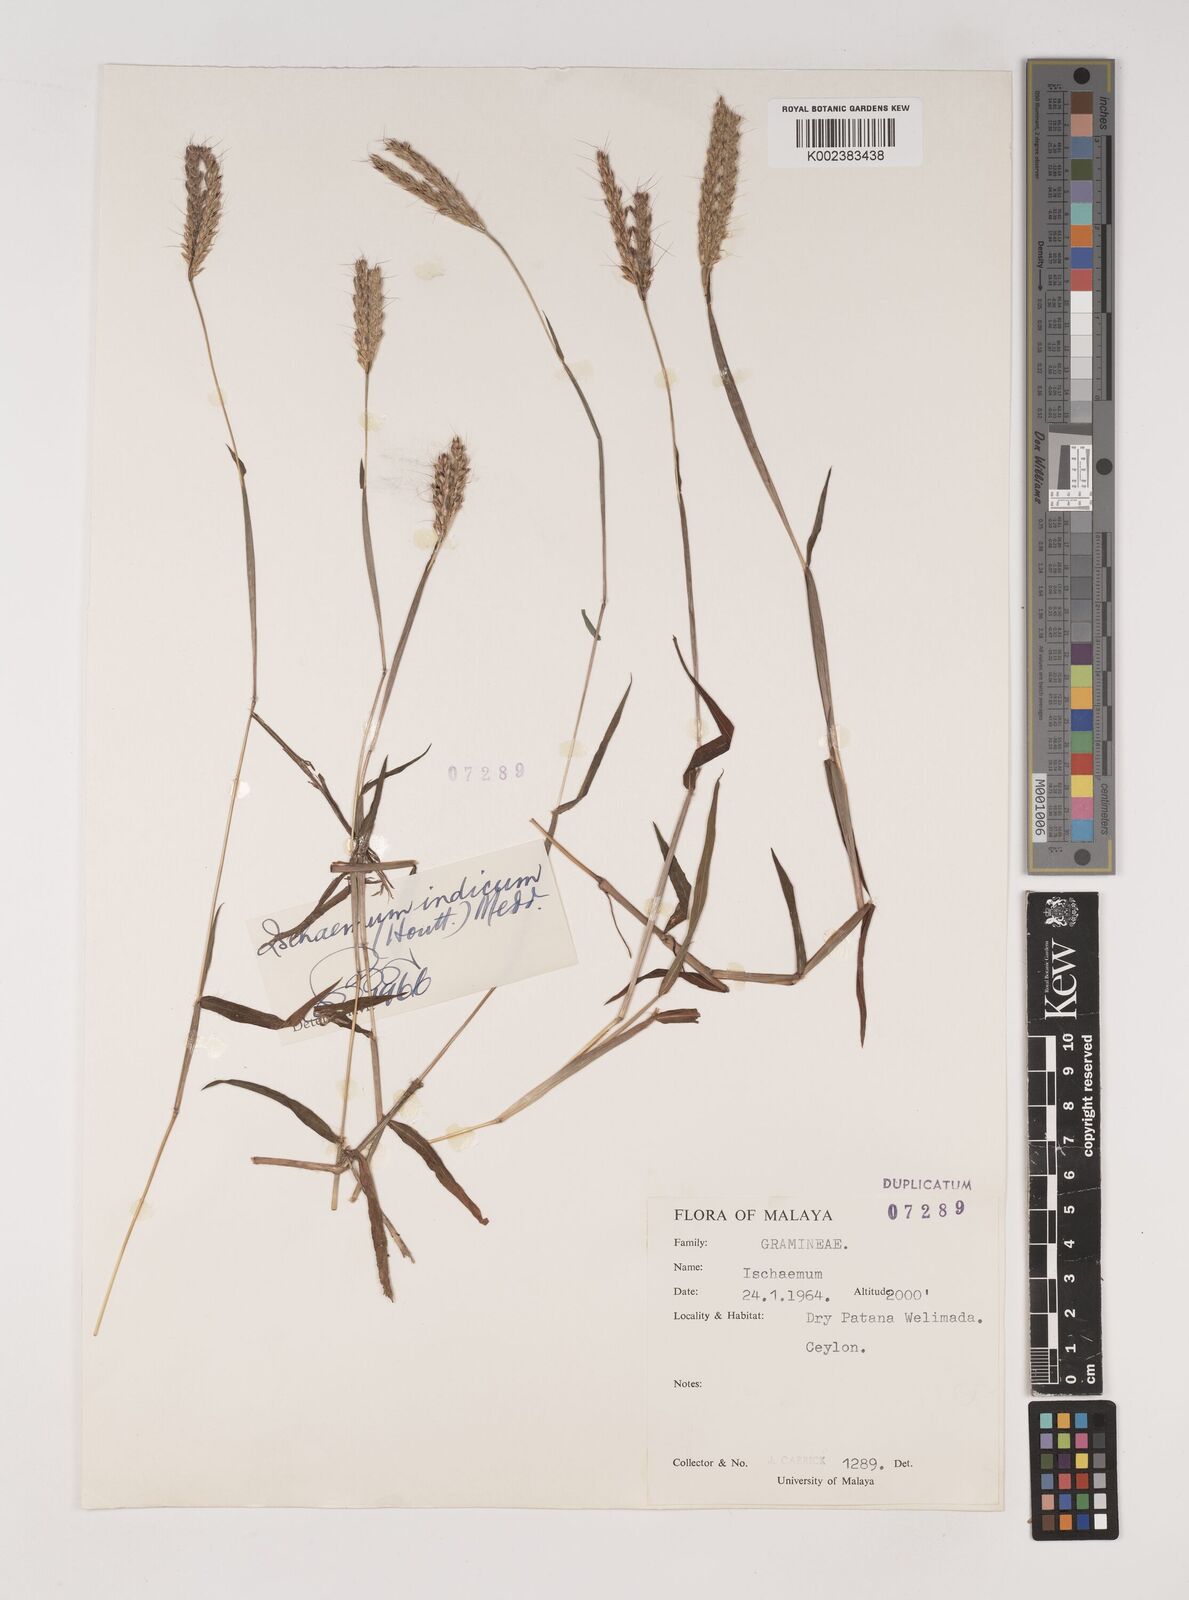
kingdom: Plantae
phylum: Tracheophyta
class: Liliopsida
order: Poales
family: Poaceae
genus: Polytrias
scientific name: Polytrias indica
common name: Indian murainagrass
